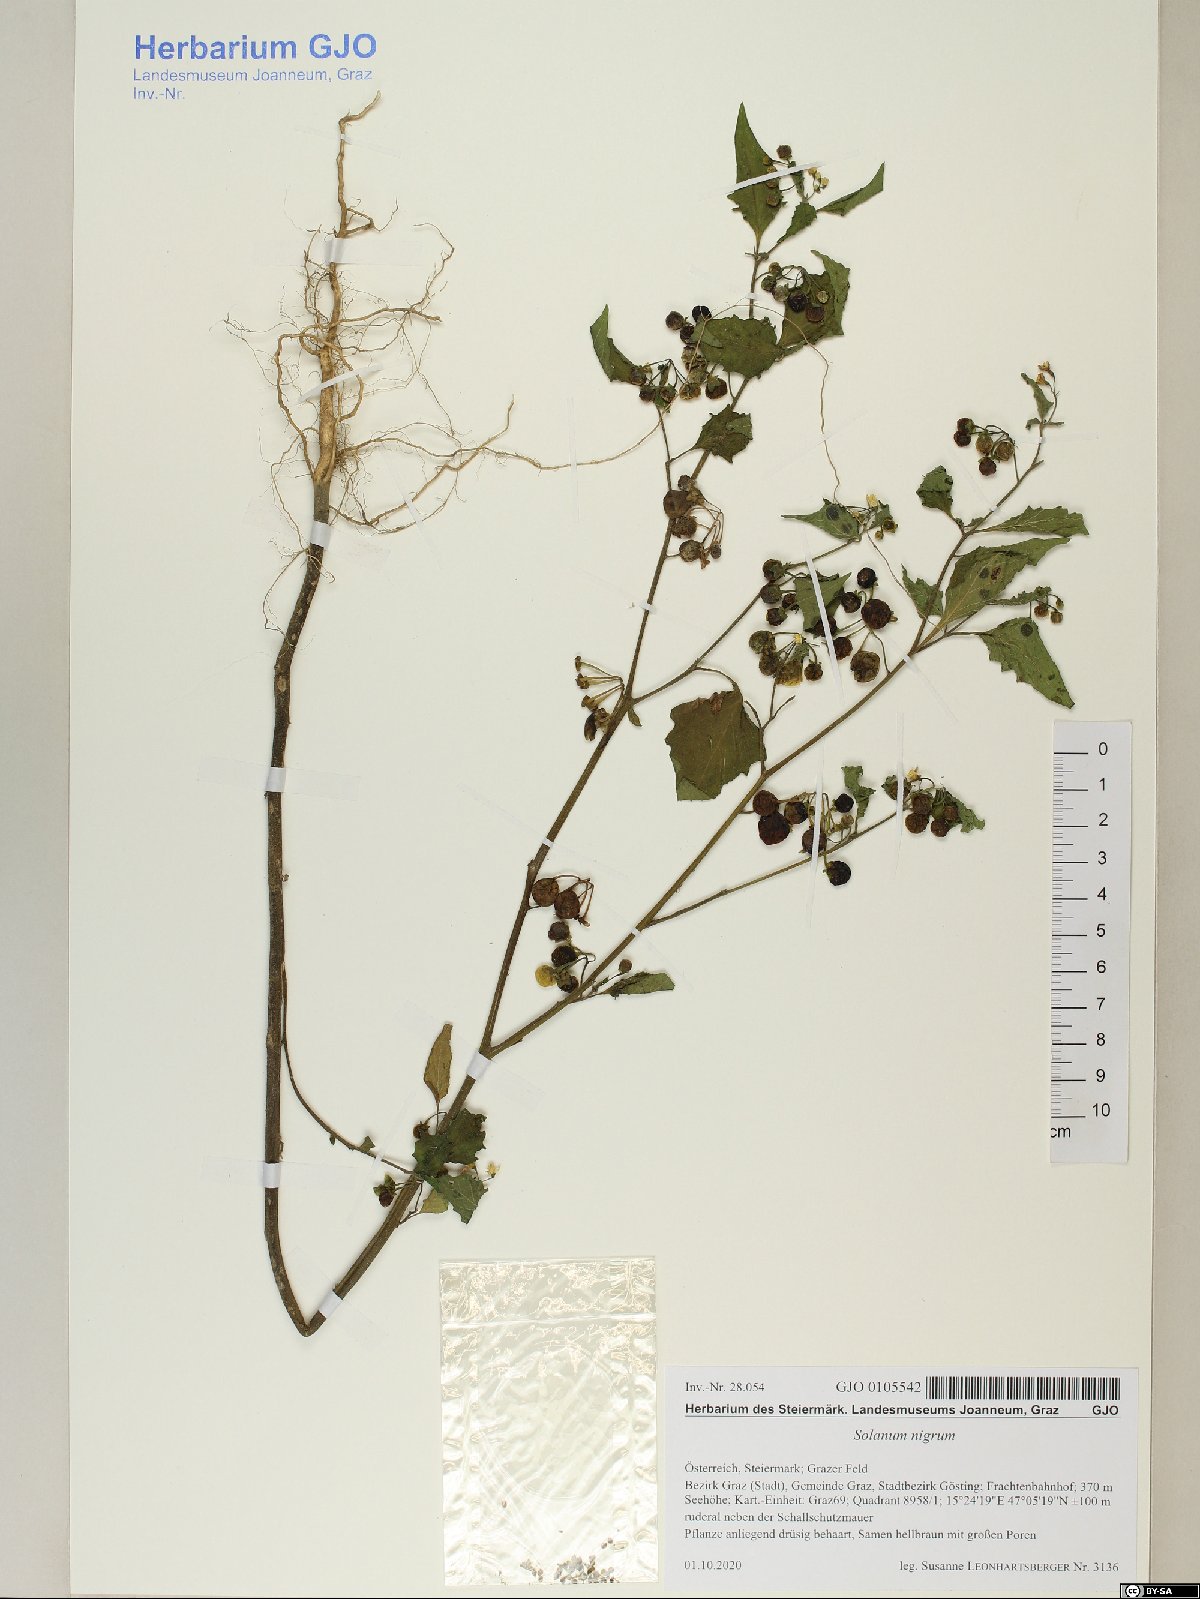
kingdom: Plantae
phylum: Tracheophyta
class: Magnoliopsida
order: Solanales
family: Solanaceae
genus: Solanum
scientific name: Solanum nigrum
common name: Black nightshade
